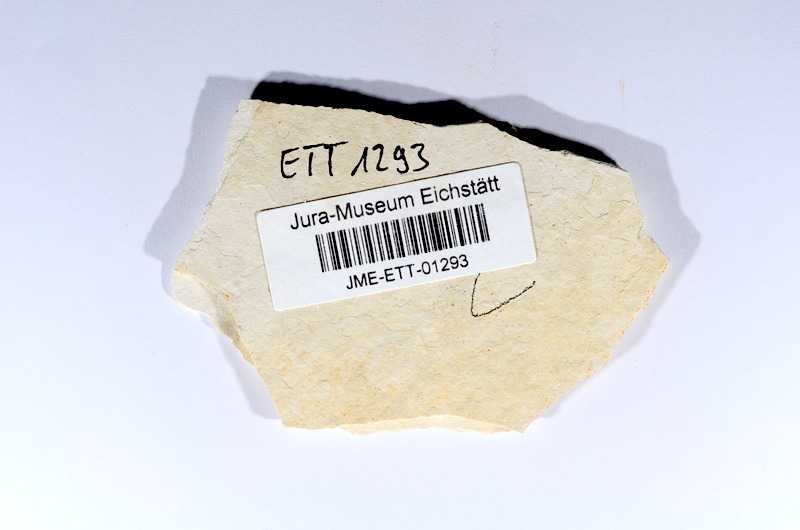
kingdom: Animalia
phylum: Chordata
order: Salmoniformes
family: Orthogonikleithridae
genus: Orthogonikleithrus
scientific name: Orthogonikleithrus hoelli
